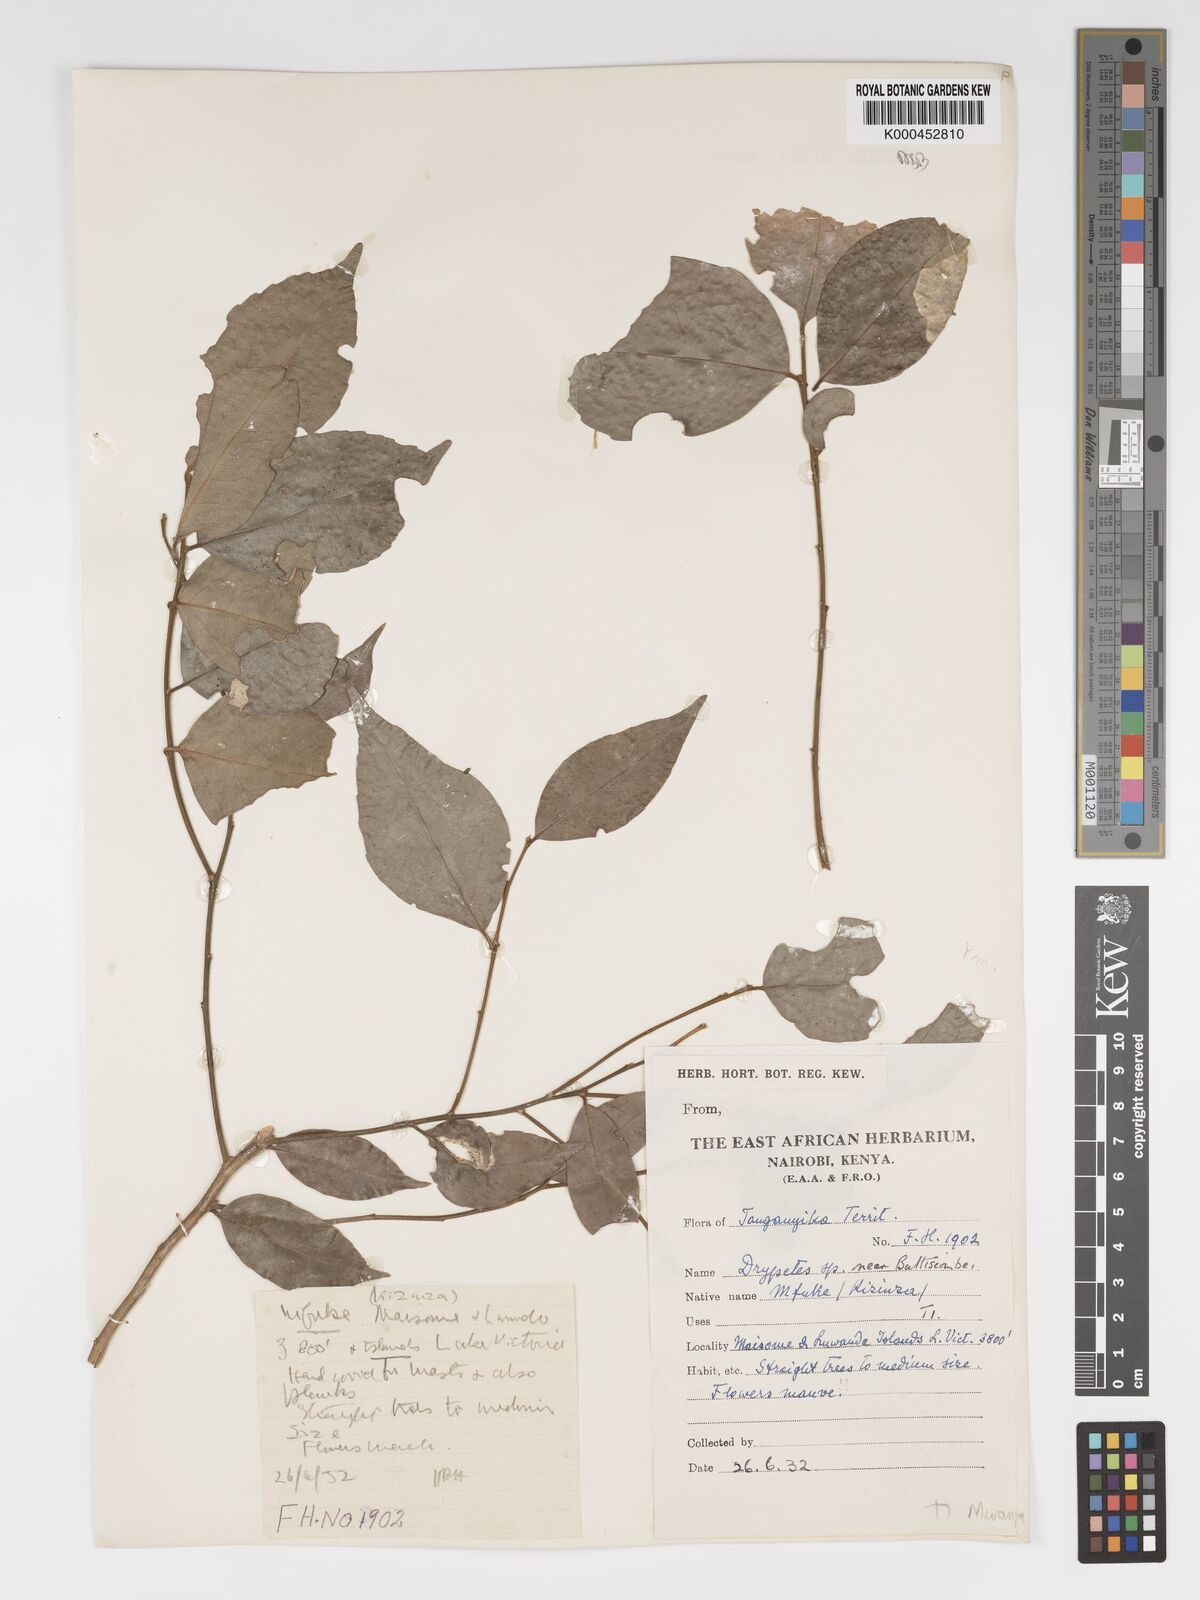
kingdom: Plantae
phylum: Tracheophyta
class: Magnoliopsida
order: Malpighiales
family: Putranjivaceae
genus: Drypetes
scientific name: Drypetes gerrardii
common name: Forest ironplum
